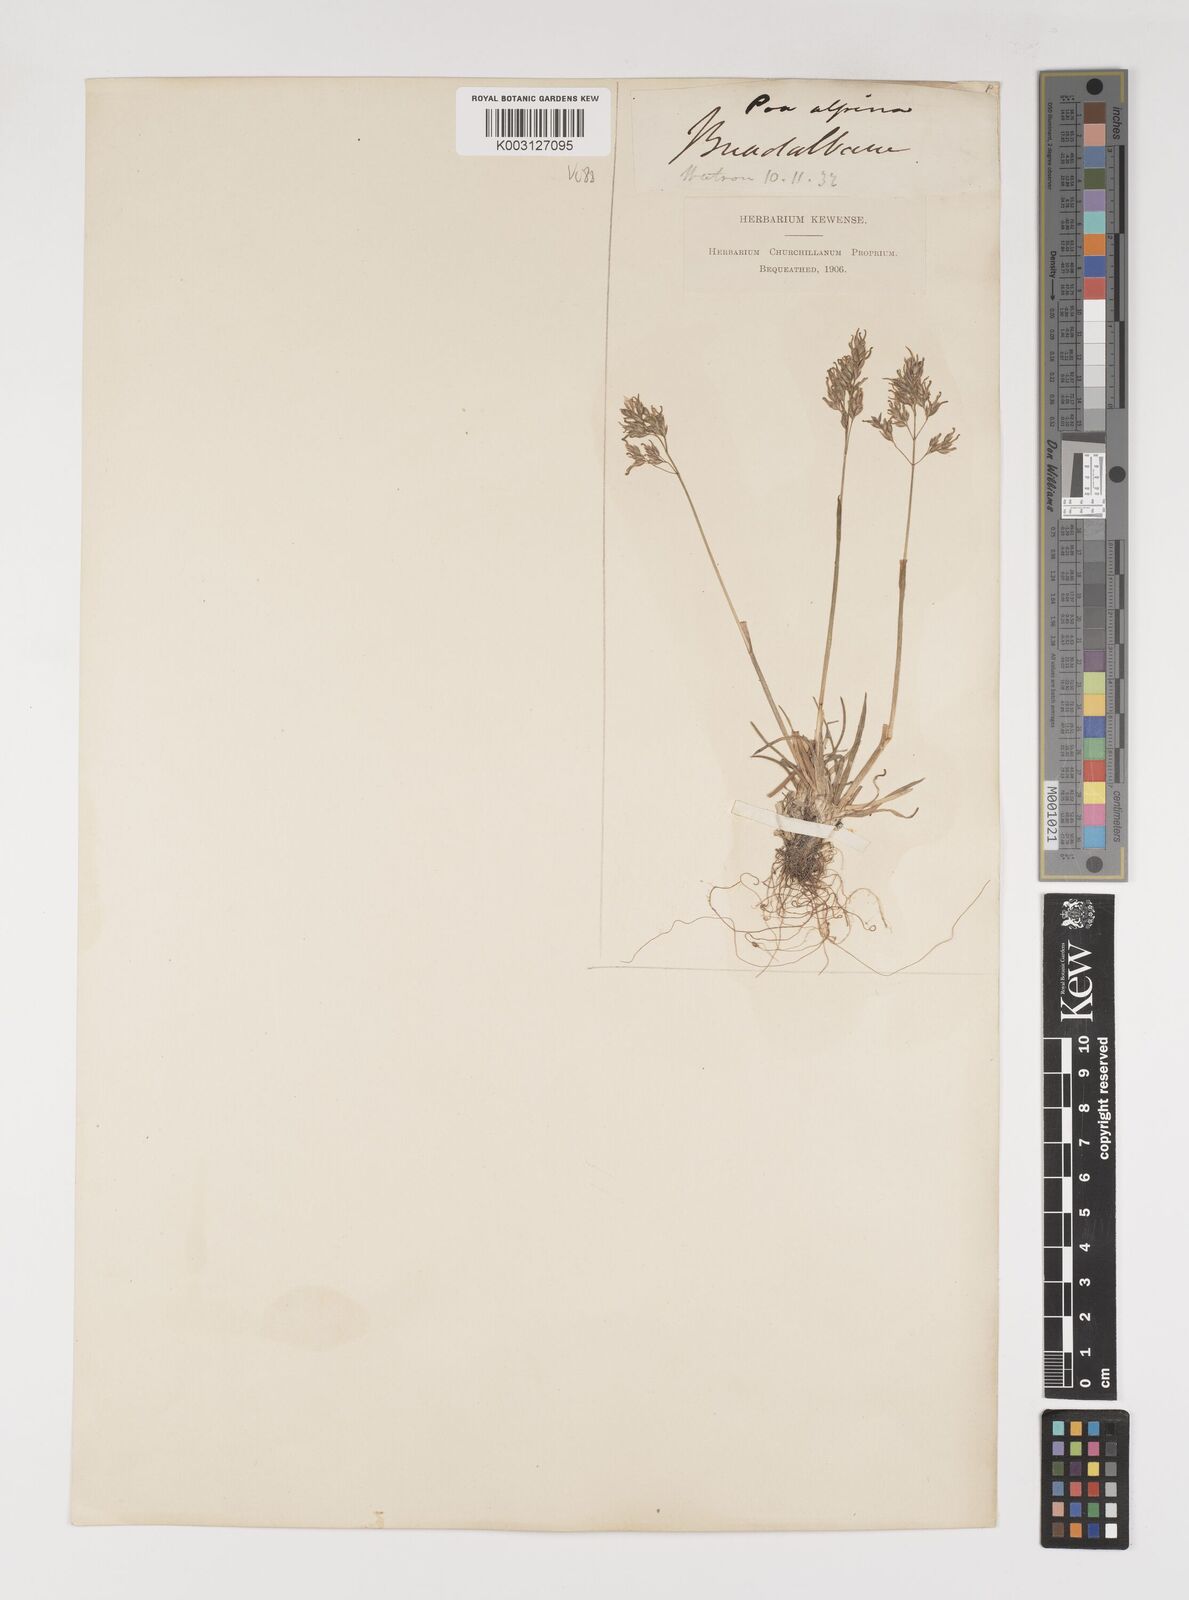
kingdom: Plantae
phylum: Tracheophyta
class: Liliopsida
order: Poales
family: Poaceae
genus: Poa
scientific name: Poa alpina
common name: Alpine bluegrass
